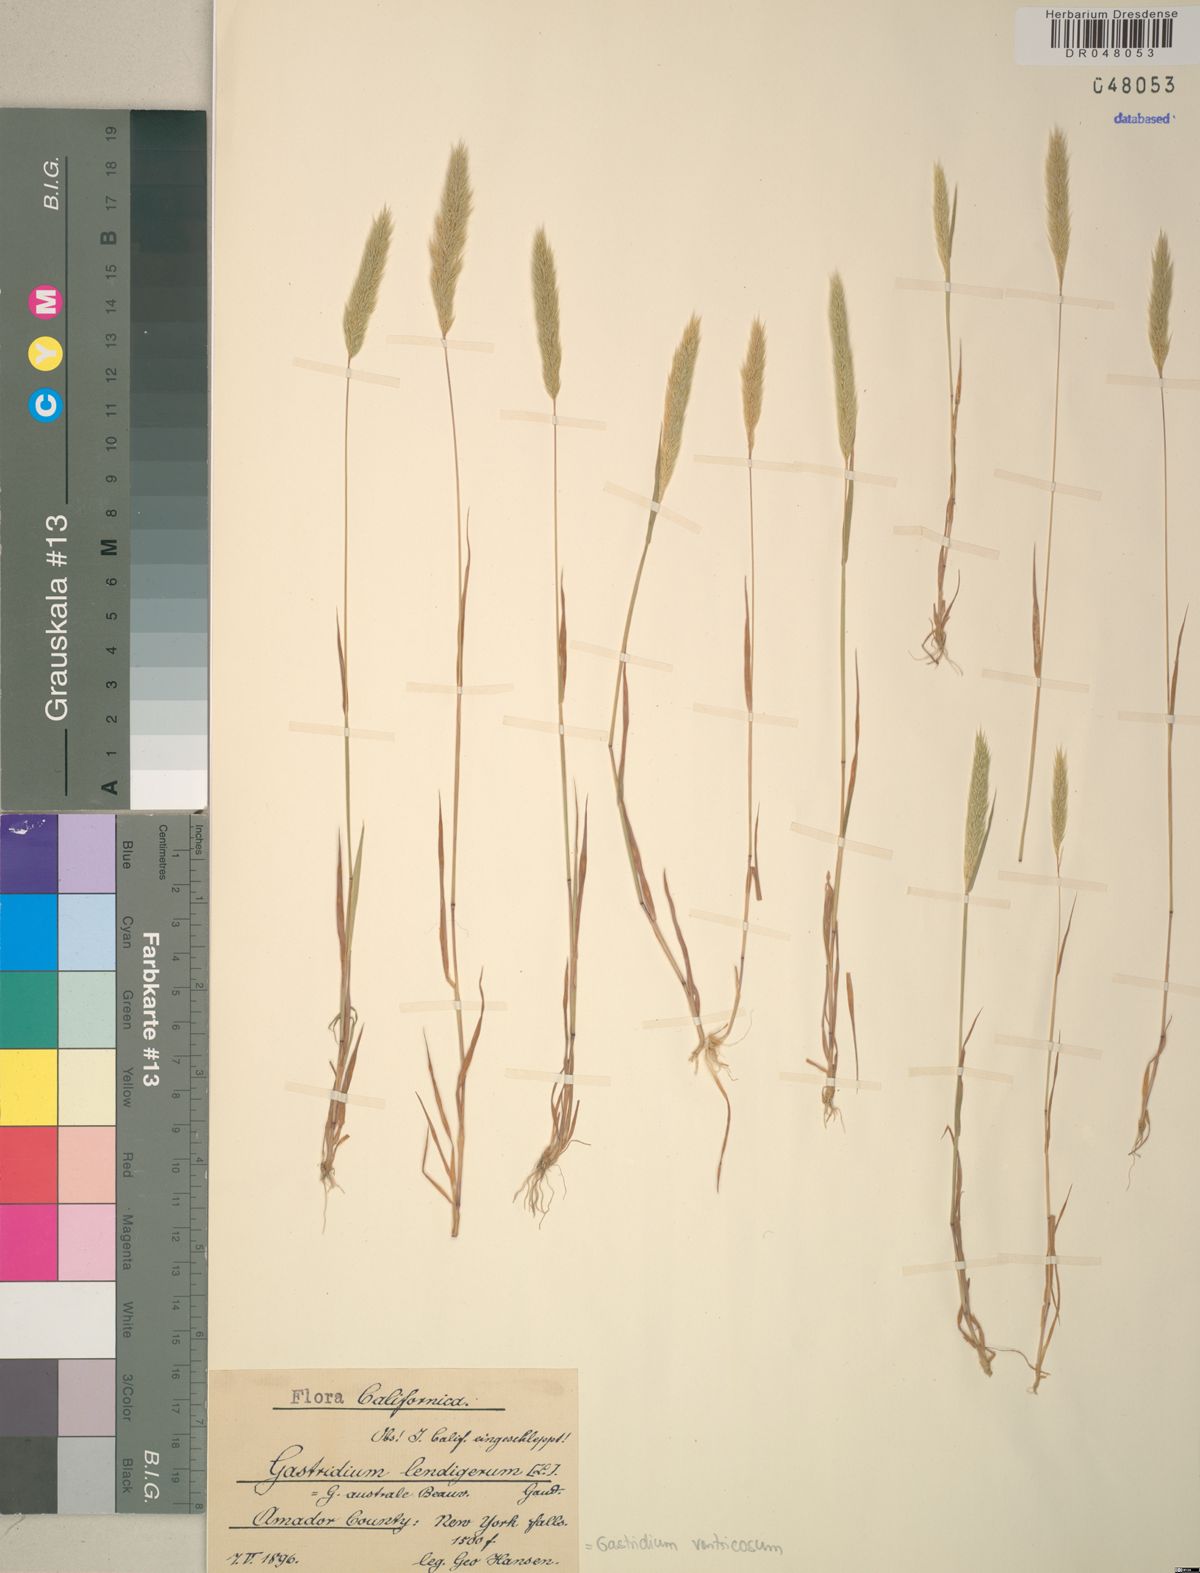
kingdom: Plantae
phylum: Tracheophyta
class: Liliopsida
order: Poales
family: Poaceae
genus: Gastridium
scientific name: Gastridium ventricosum
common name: Nit-grass
